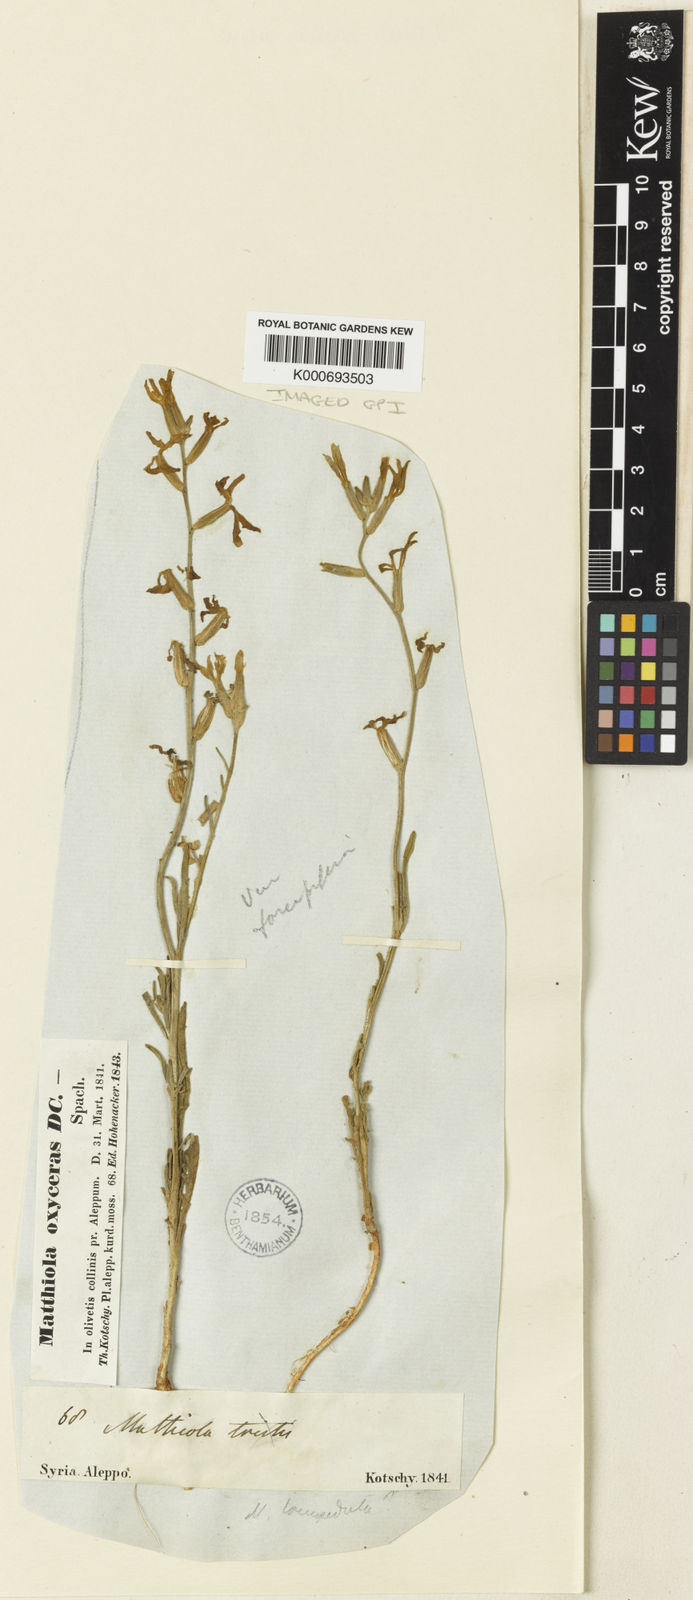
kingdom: Plantae
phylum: Tracheophyta
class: Magnoliopsida
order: Brassicales
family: Brassicaceae
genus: Matthiola
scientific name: Matthiola longipetala
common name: Night-scented stock
